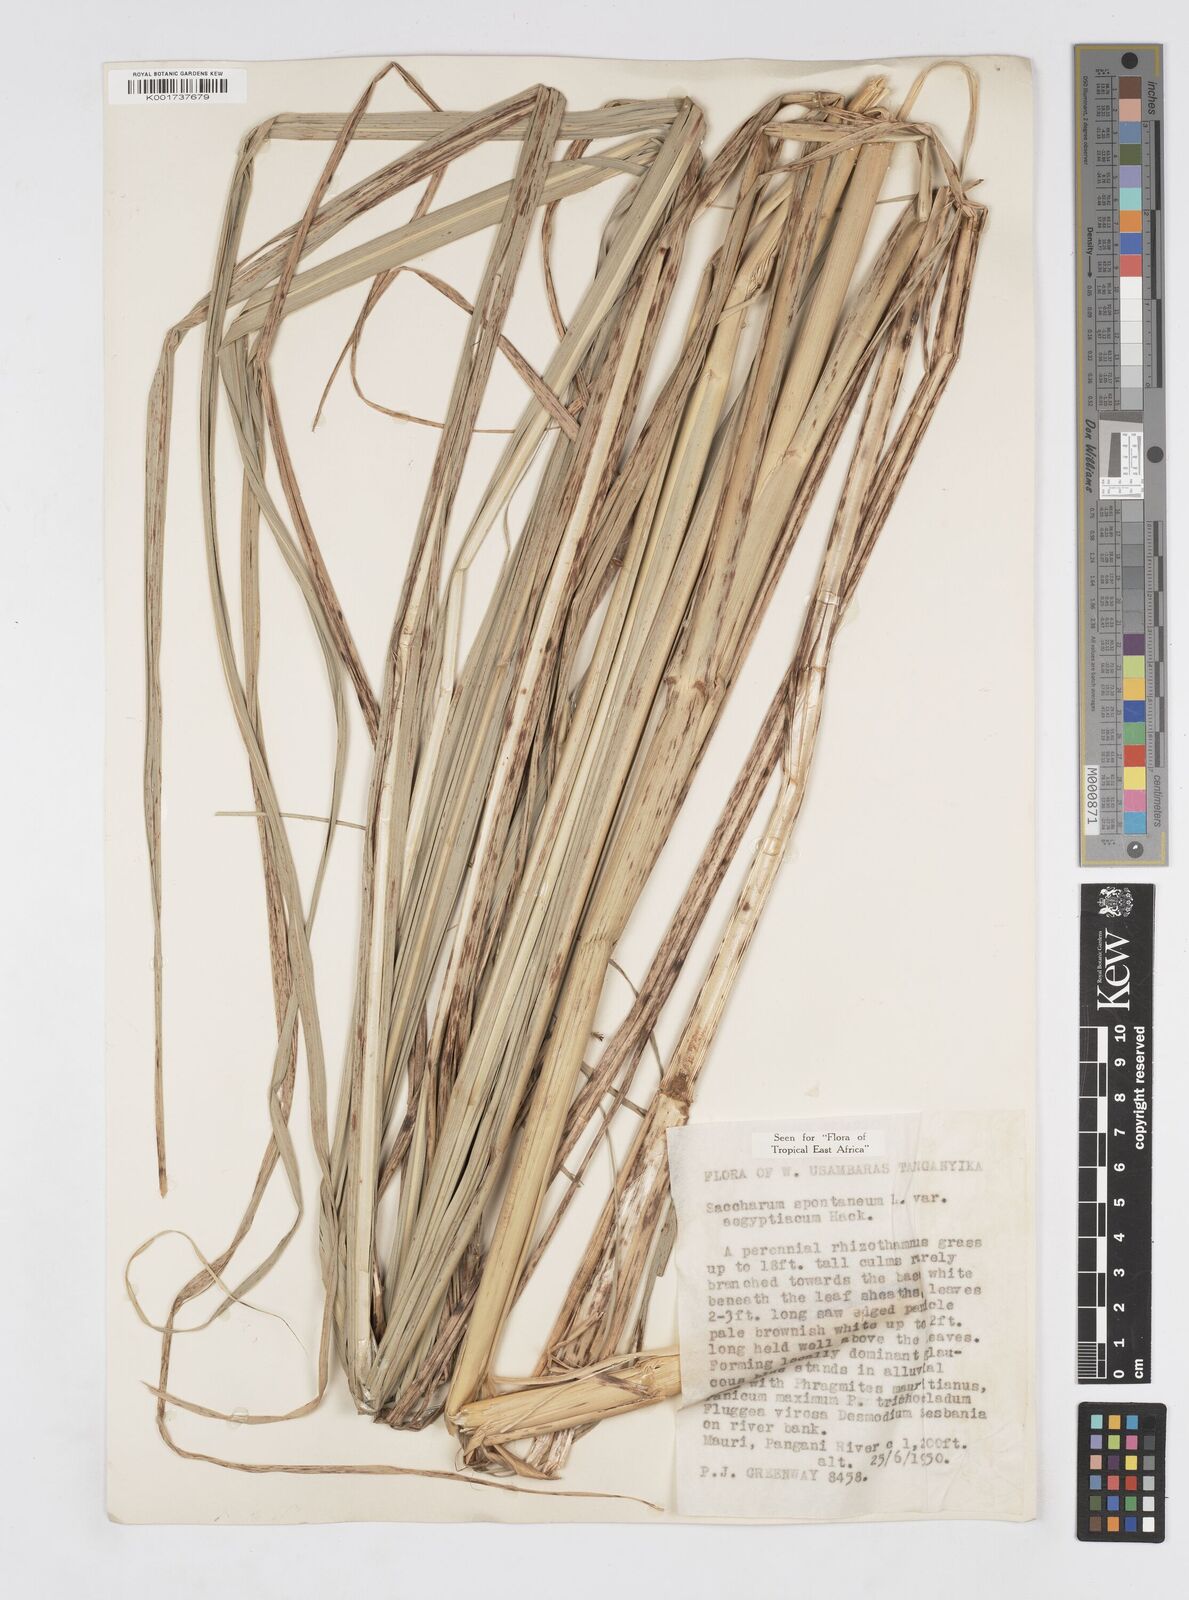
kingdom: Plantae
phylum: Tracheophyta
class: Liliopsida
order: Poales
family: Poaceae
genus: Saccharum
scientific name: Saccharum spontaneum
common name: Wild sugarcane
